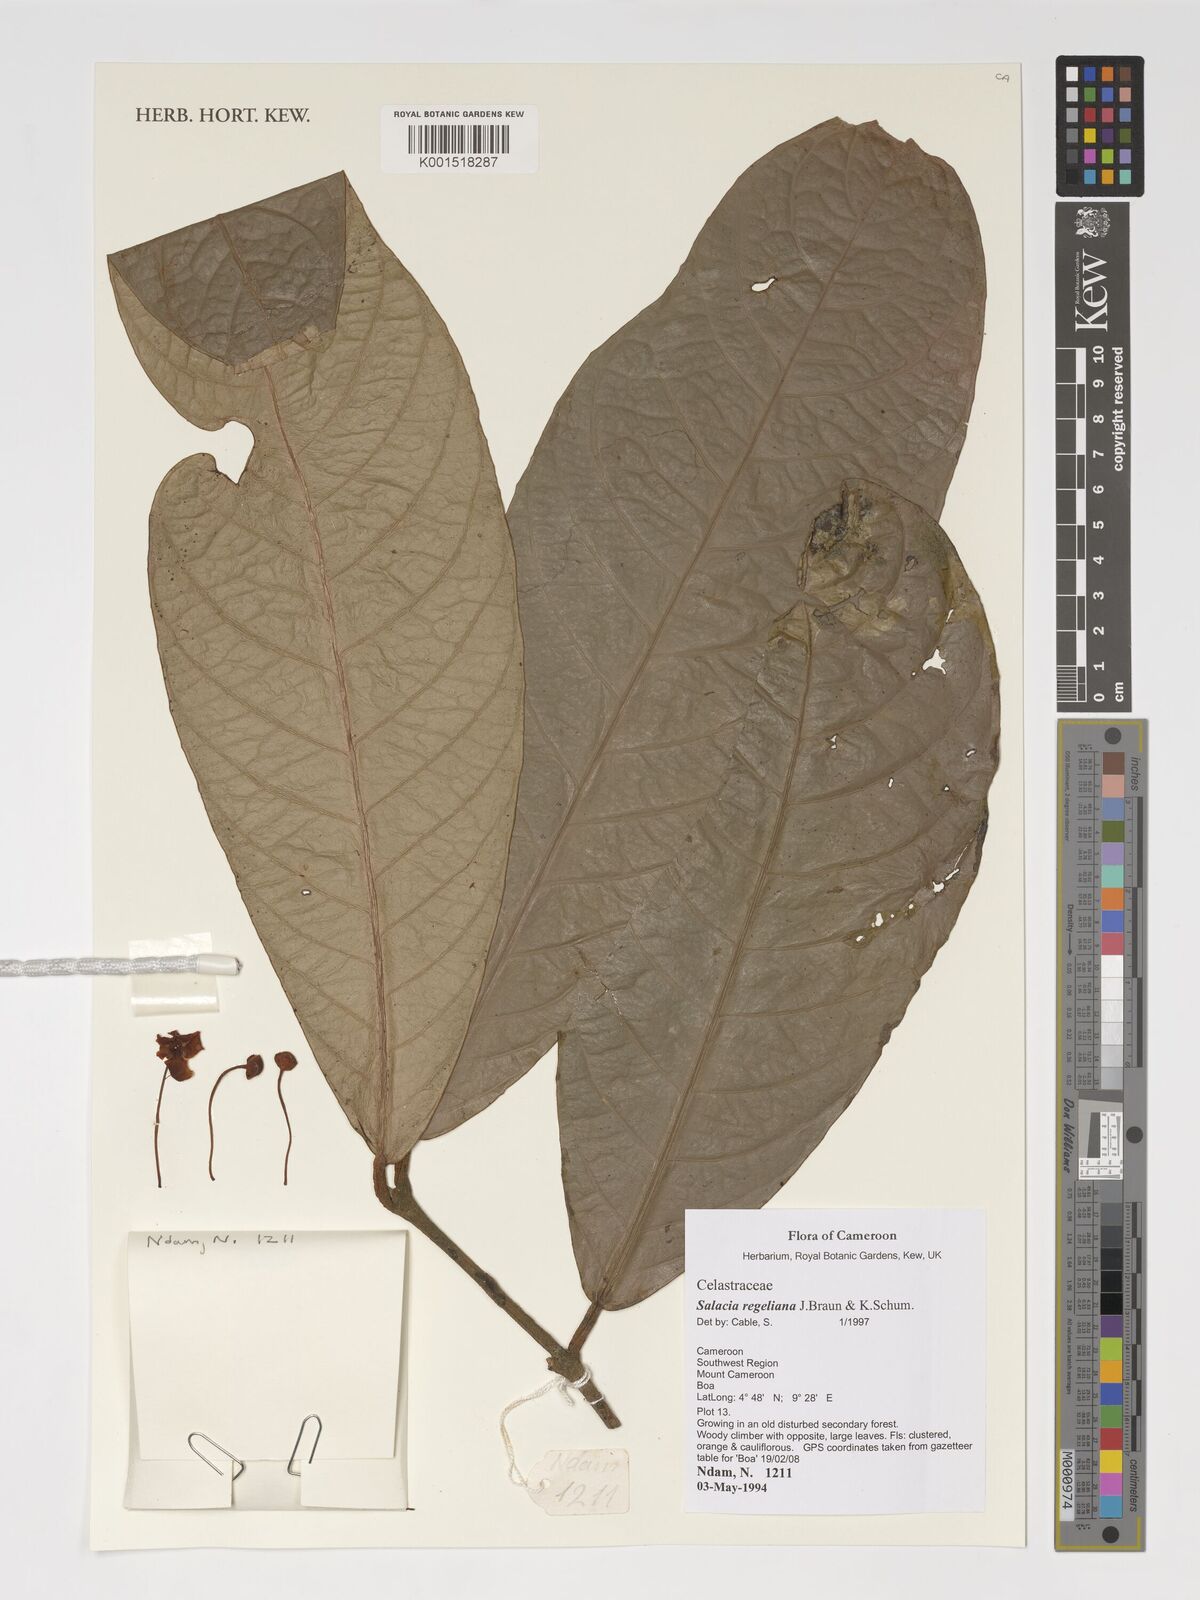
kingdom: Plantae
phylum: Tracheophyta
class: Magnoliopsida
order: Celastrales
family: Celastraceae
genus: Salacia
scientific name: Salacia regeliana
